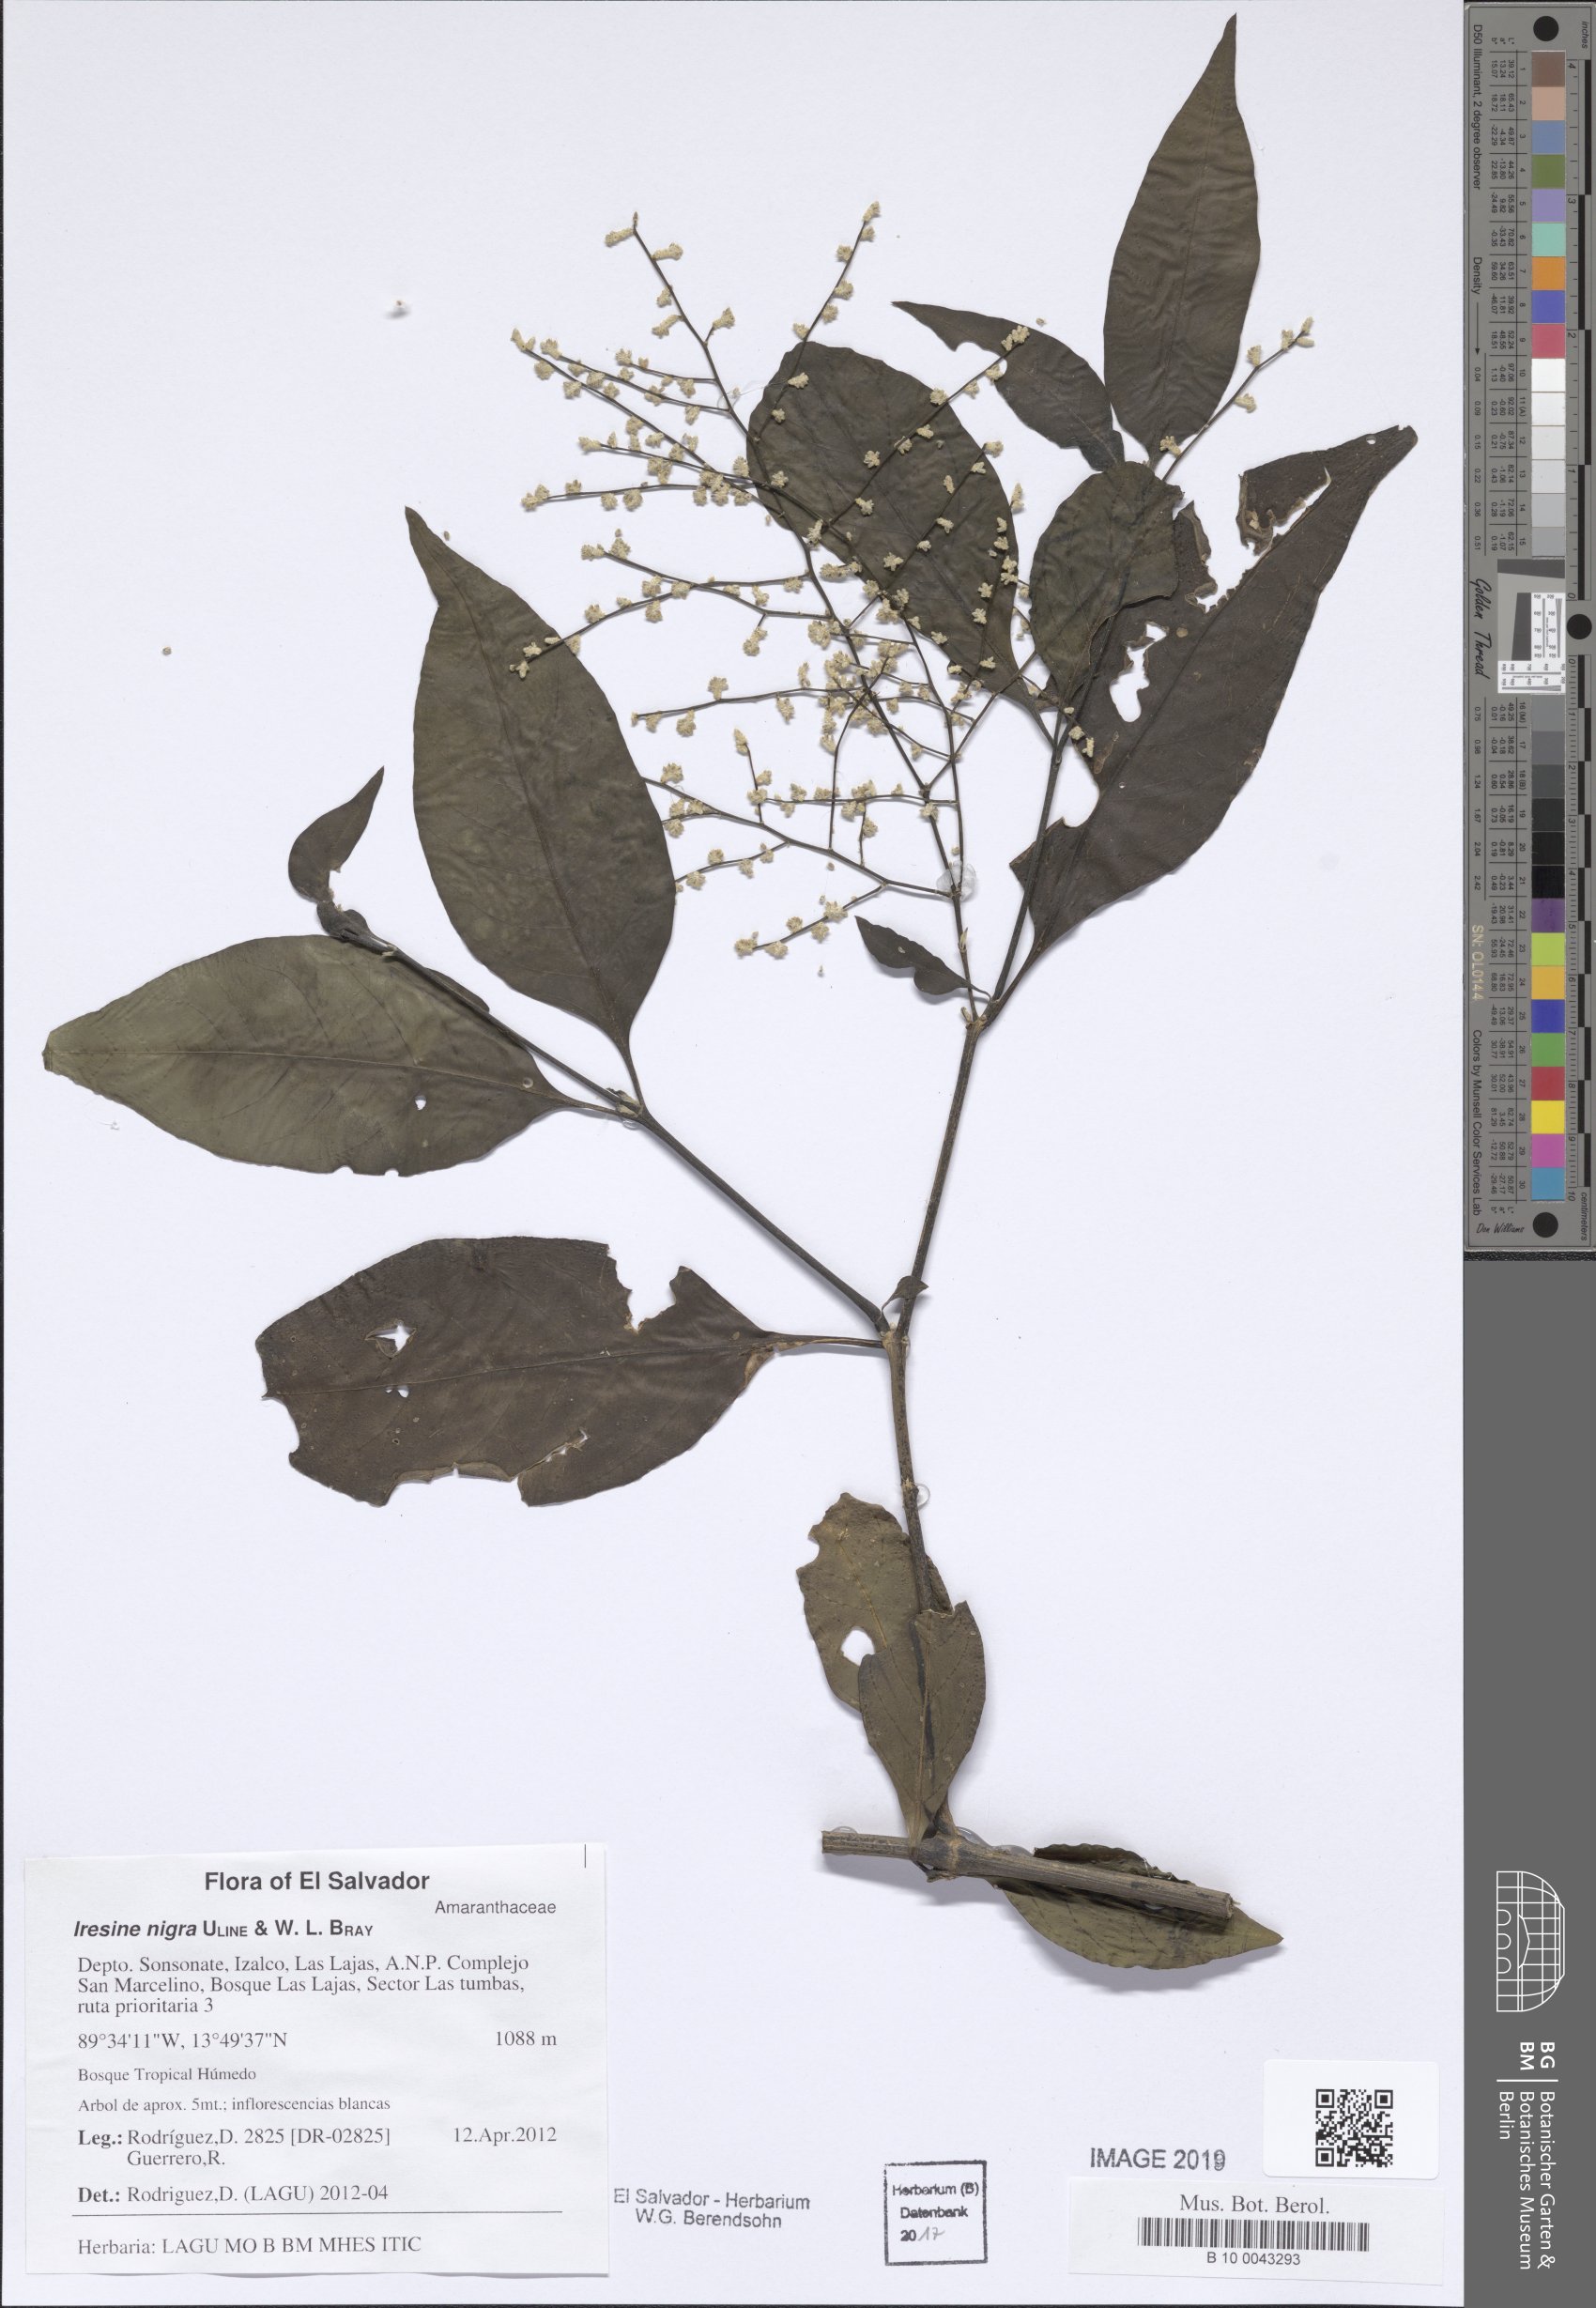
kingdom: Plantae
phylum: Tracheophyta
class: Magnoliopsida
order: Caryophyllales
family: Amaranthaceae
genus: Iresine
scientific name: Iresine nigra
